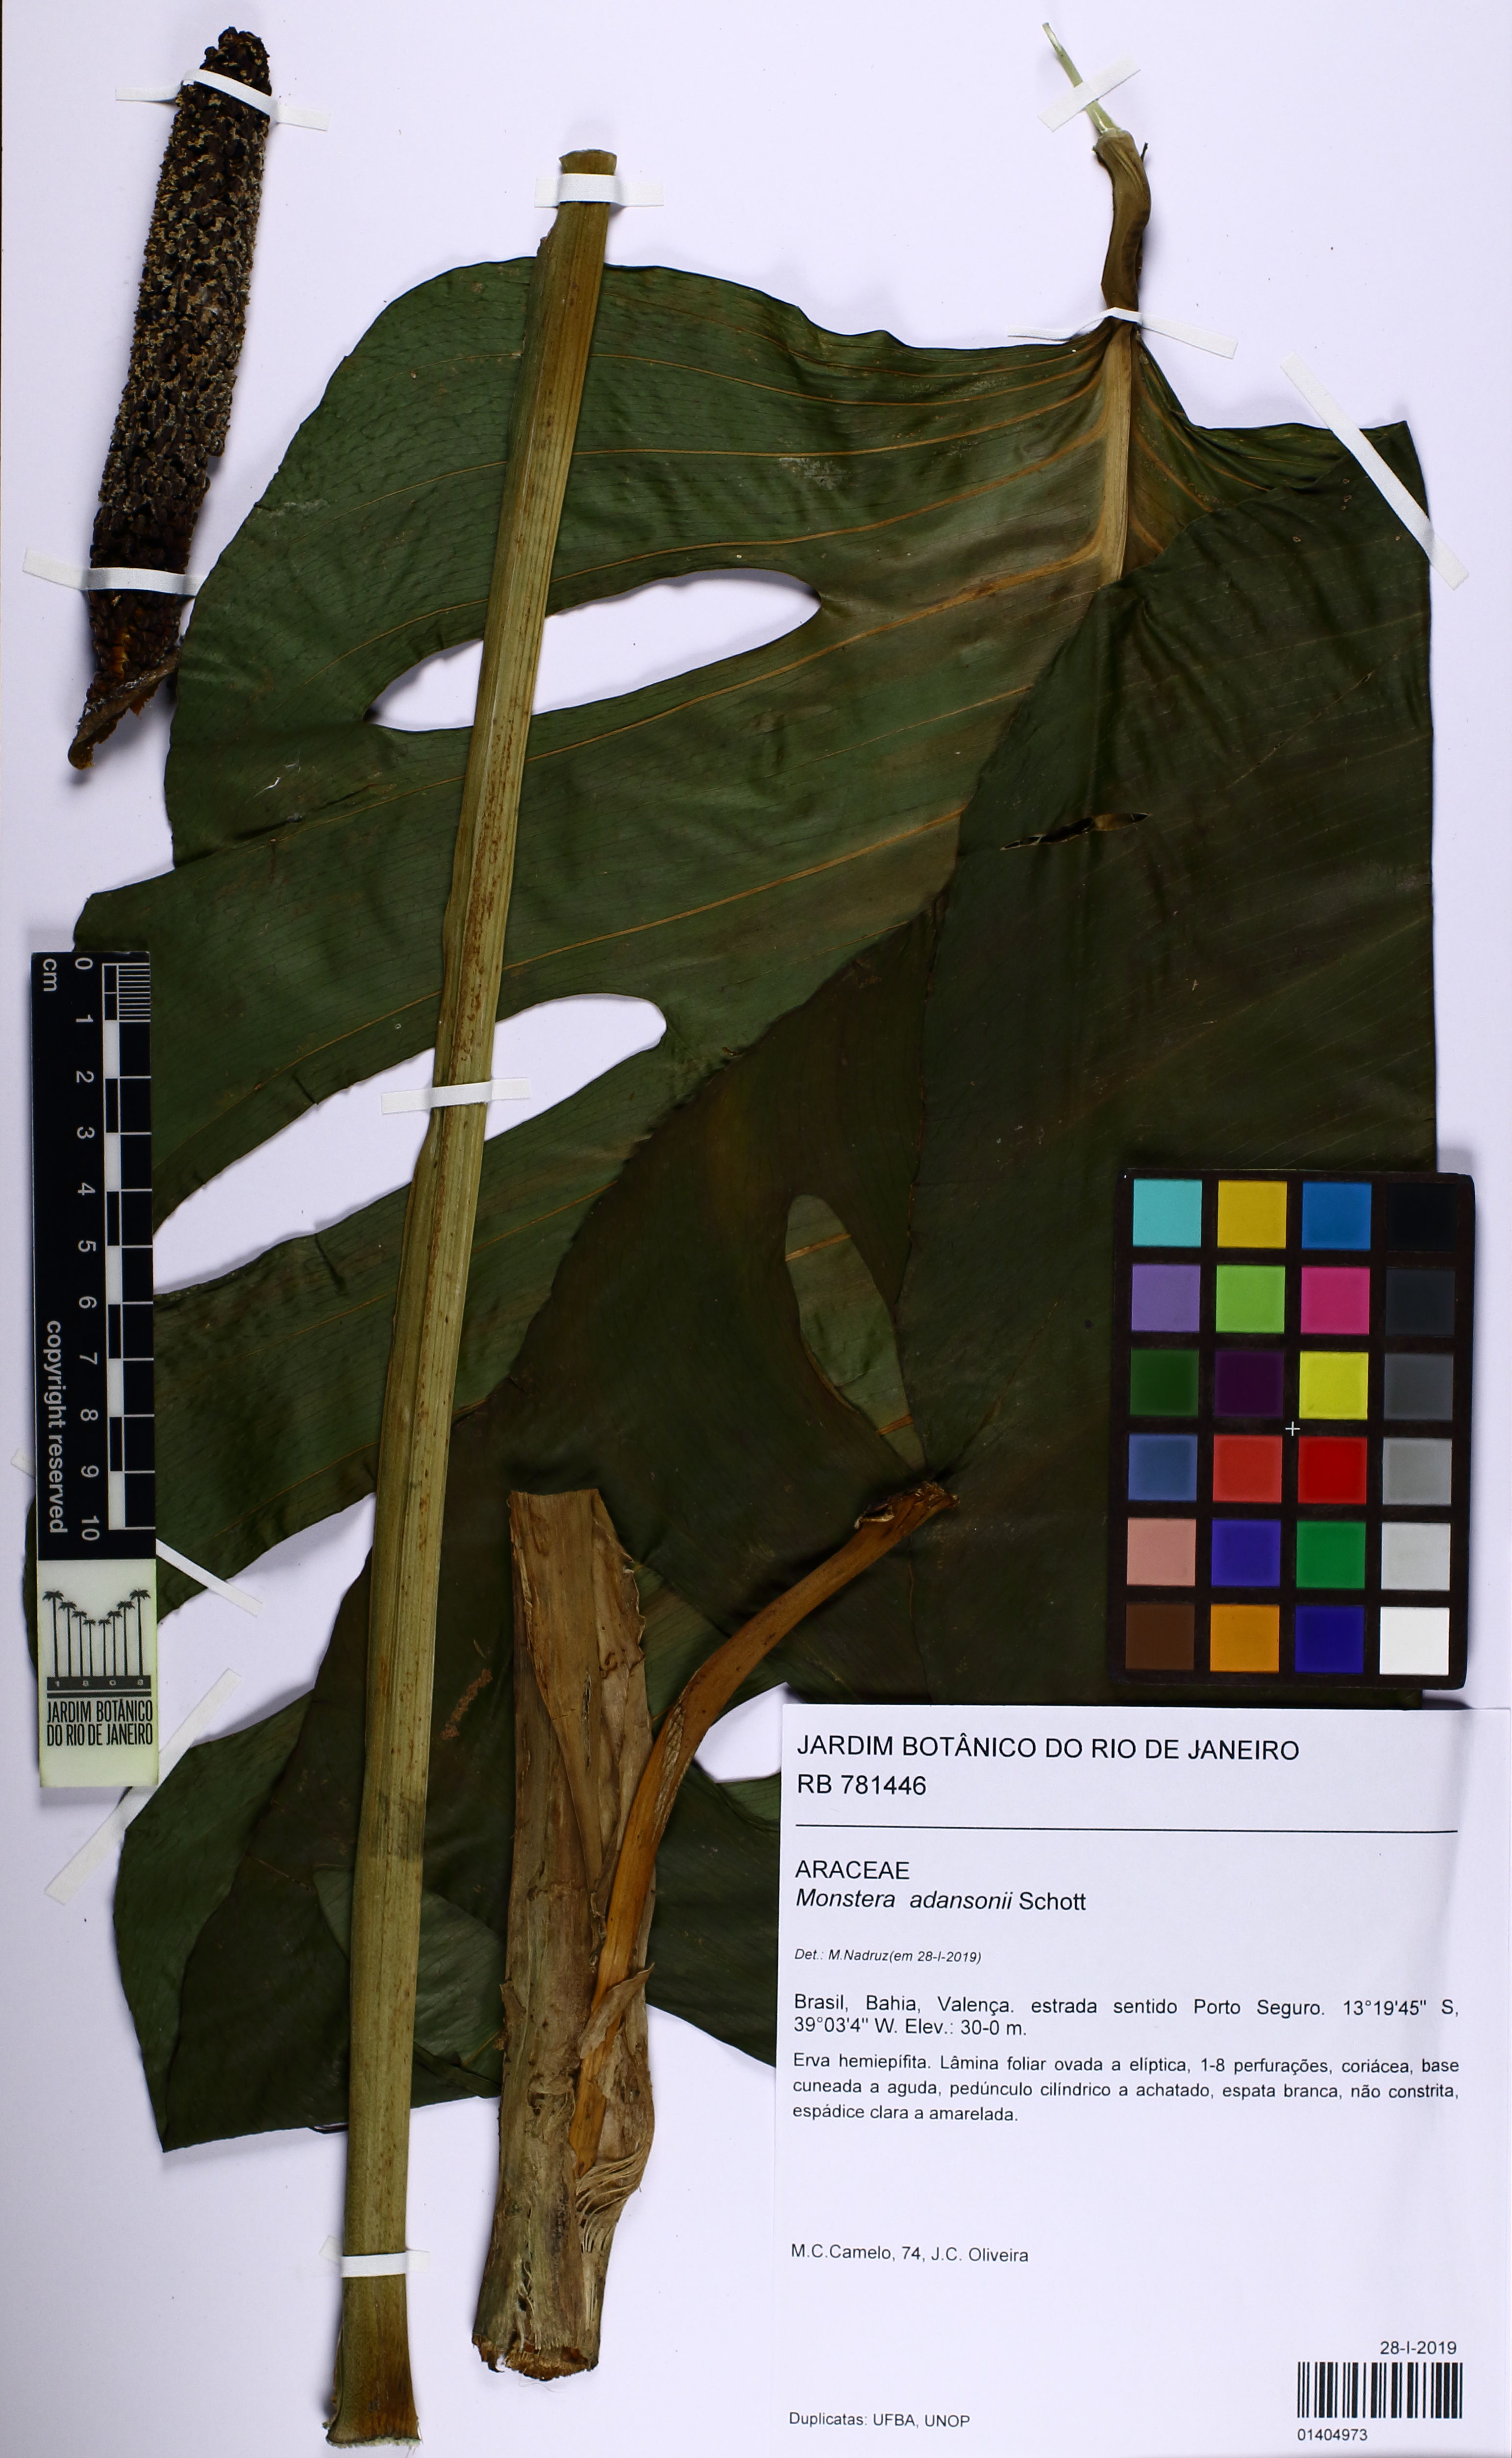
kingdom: Plantae
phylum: Tracheophyta
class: Liliopsida
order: Alismatales
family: Araceae
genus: Monstera
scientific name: Monstera adansonii
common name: Tarovine
